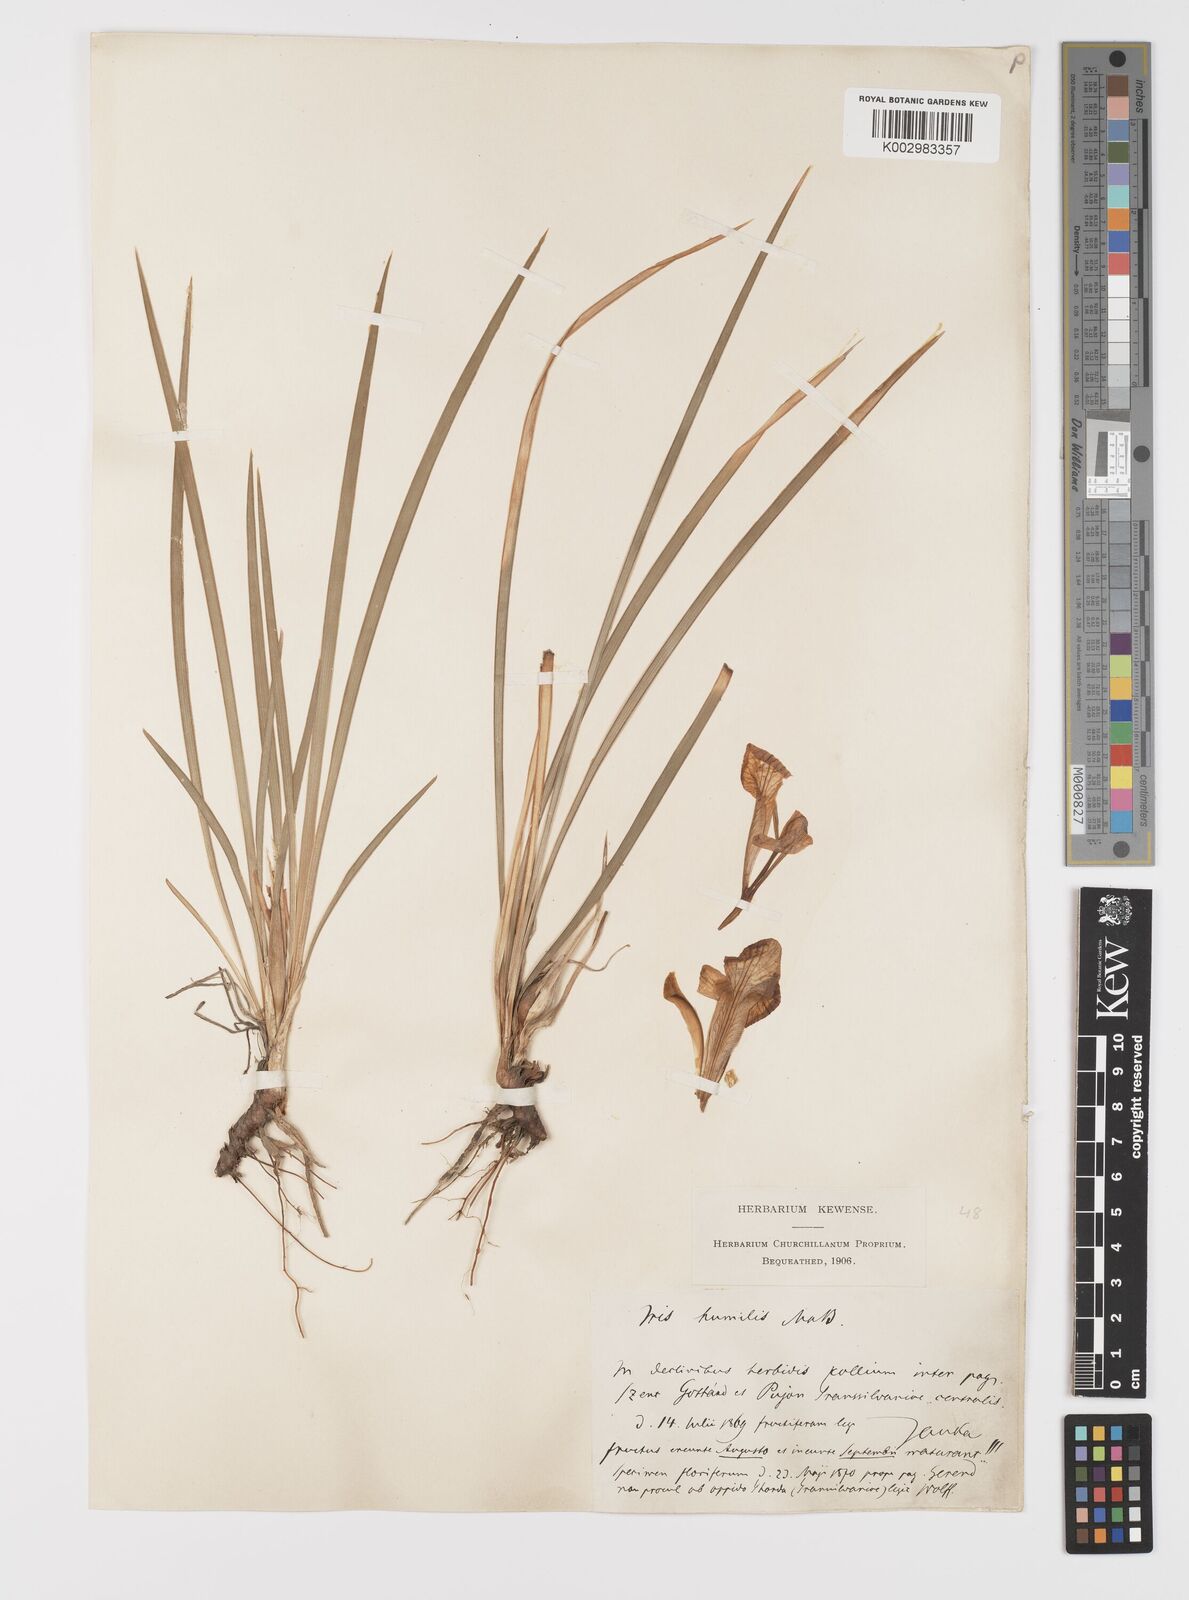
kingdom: Plantae
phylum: Tracheophyta
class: Liliopsida
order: Asparagales
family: Iridaceae
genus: Iris
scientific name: Iris pontica
